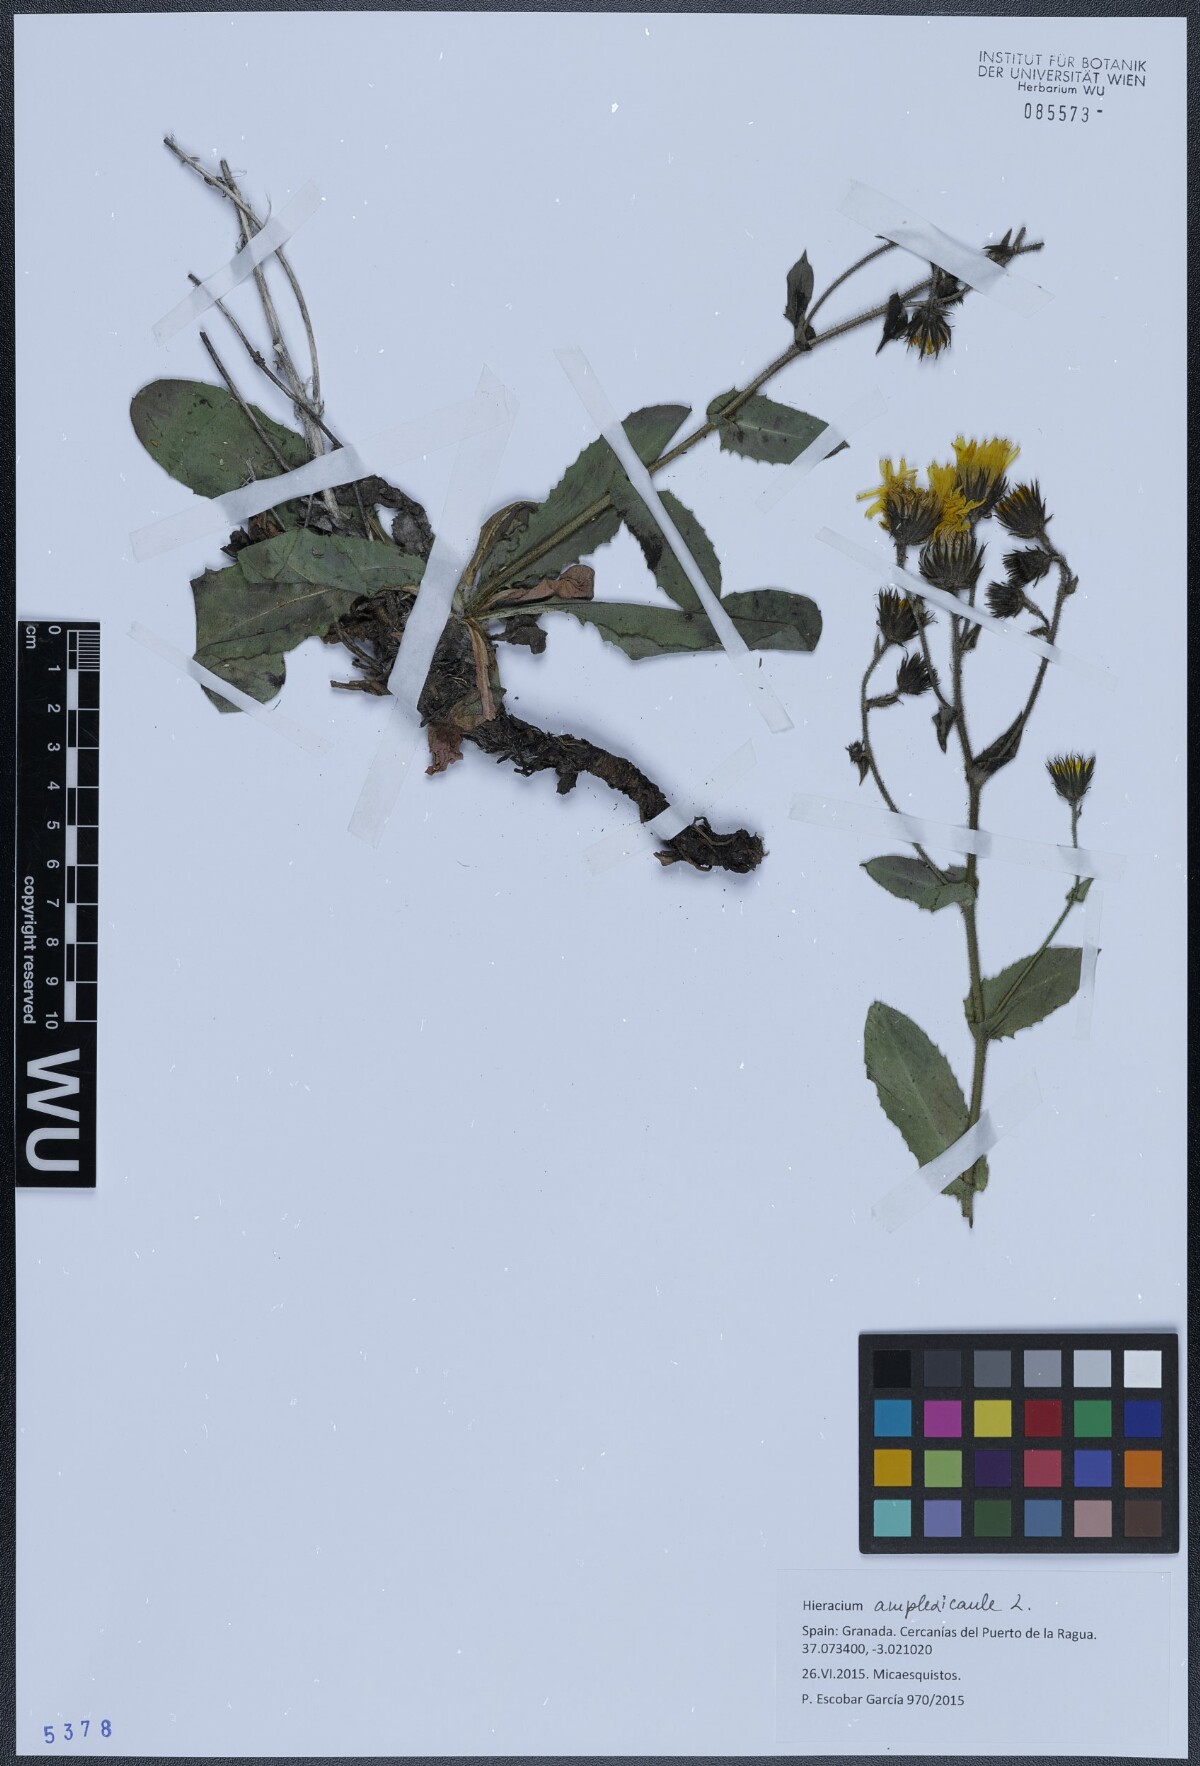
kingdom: Plantae
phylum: Tracheophyta
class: Magnoliopsida
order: Asterales
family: Asteraceae
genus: Hieracium
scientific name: Hieracium amplexicaule
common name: Sticky hawkweed
